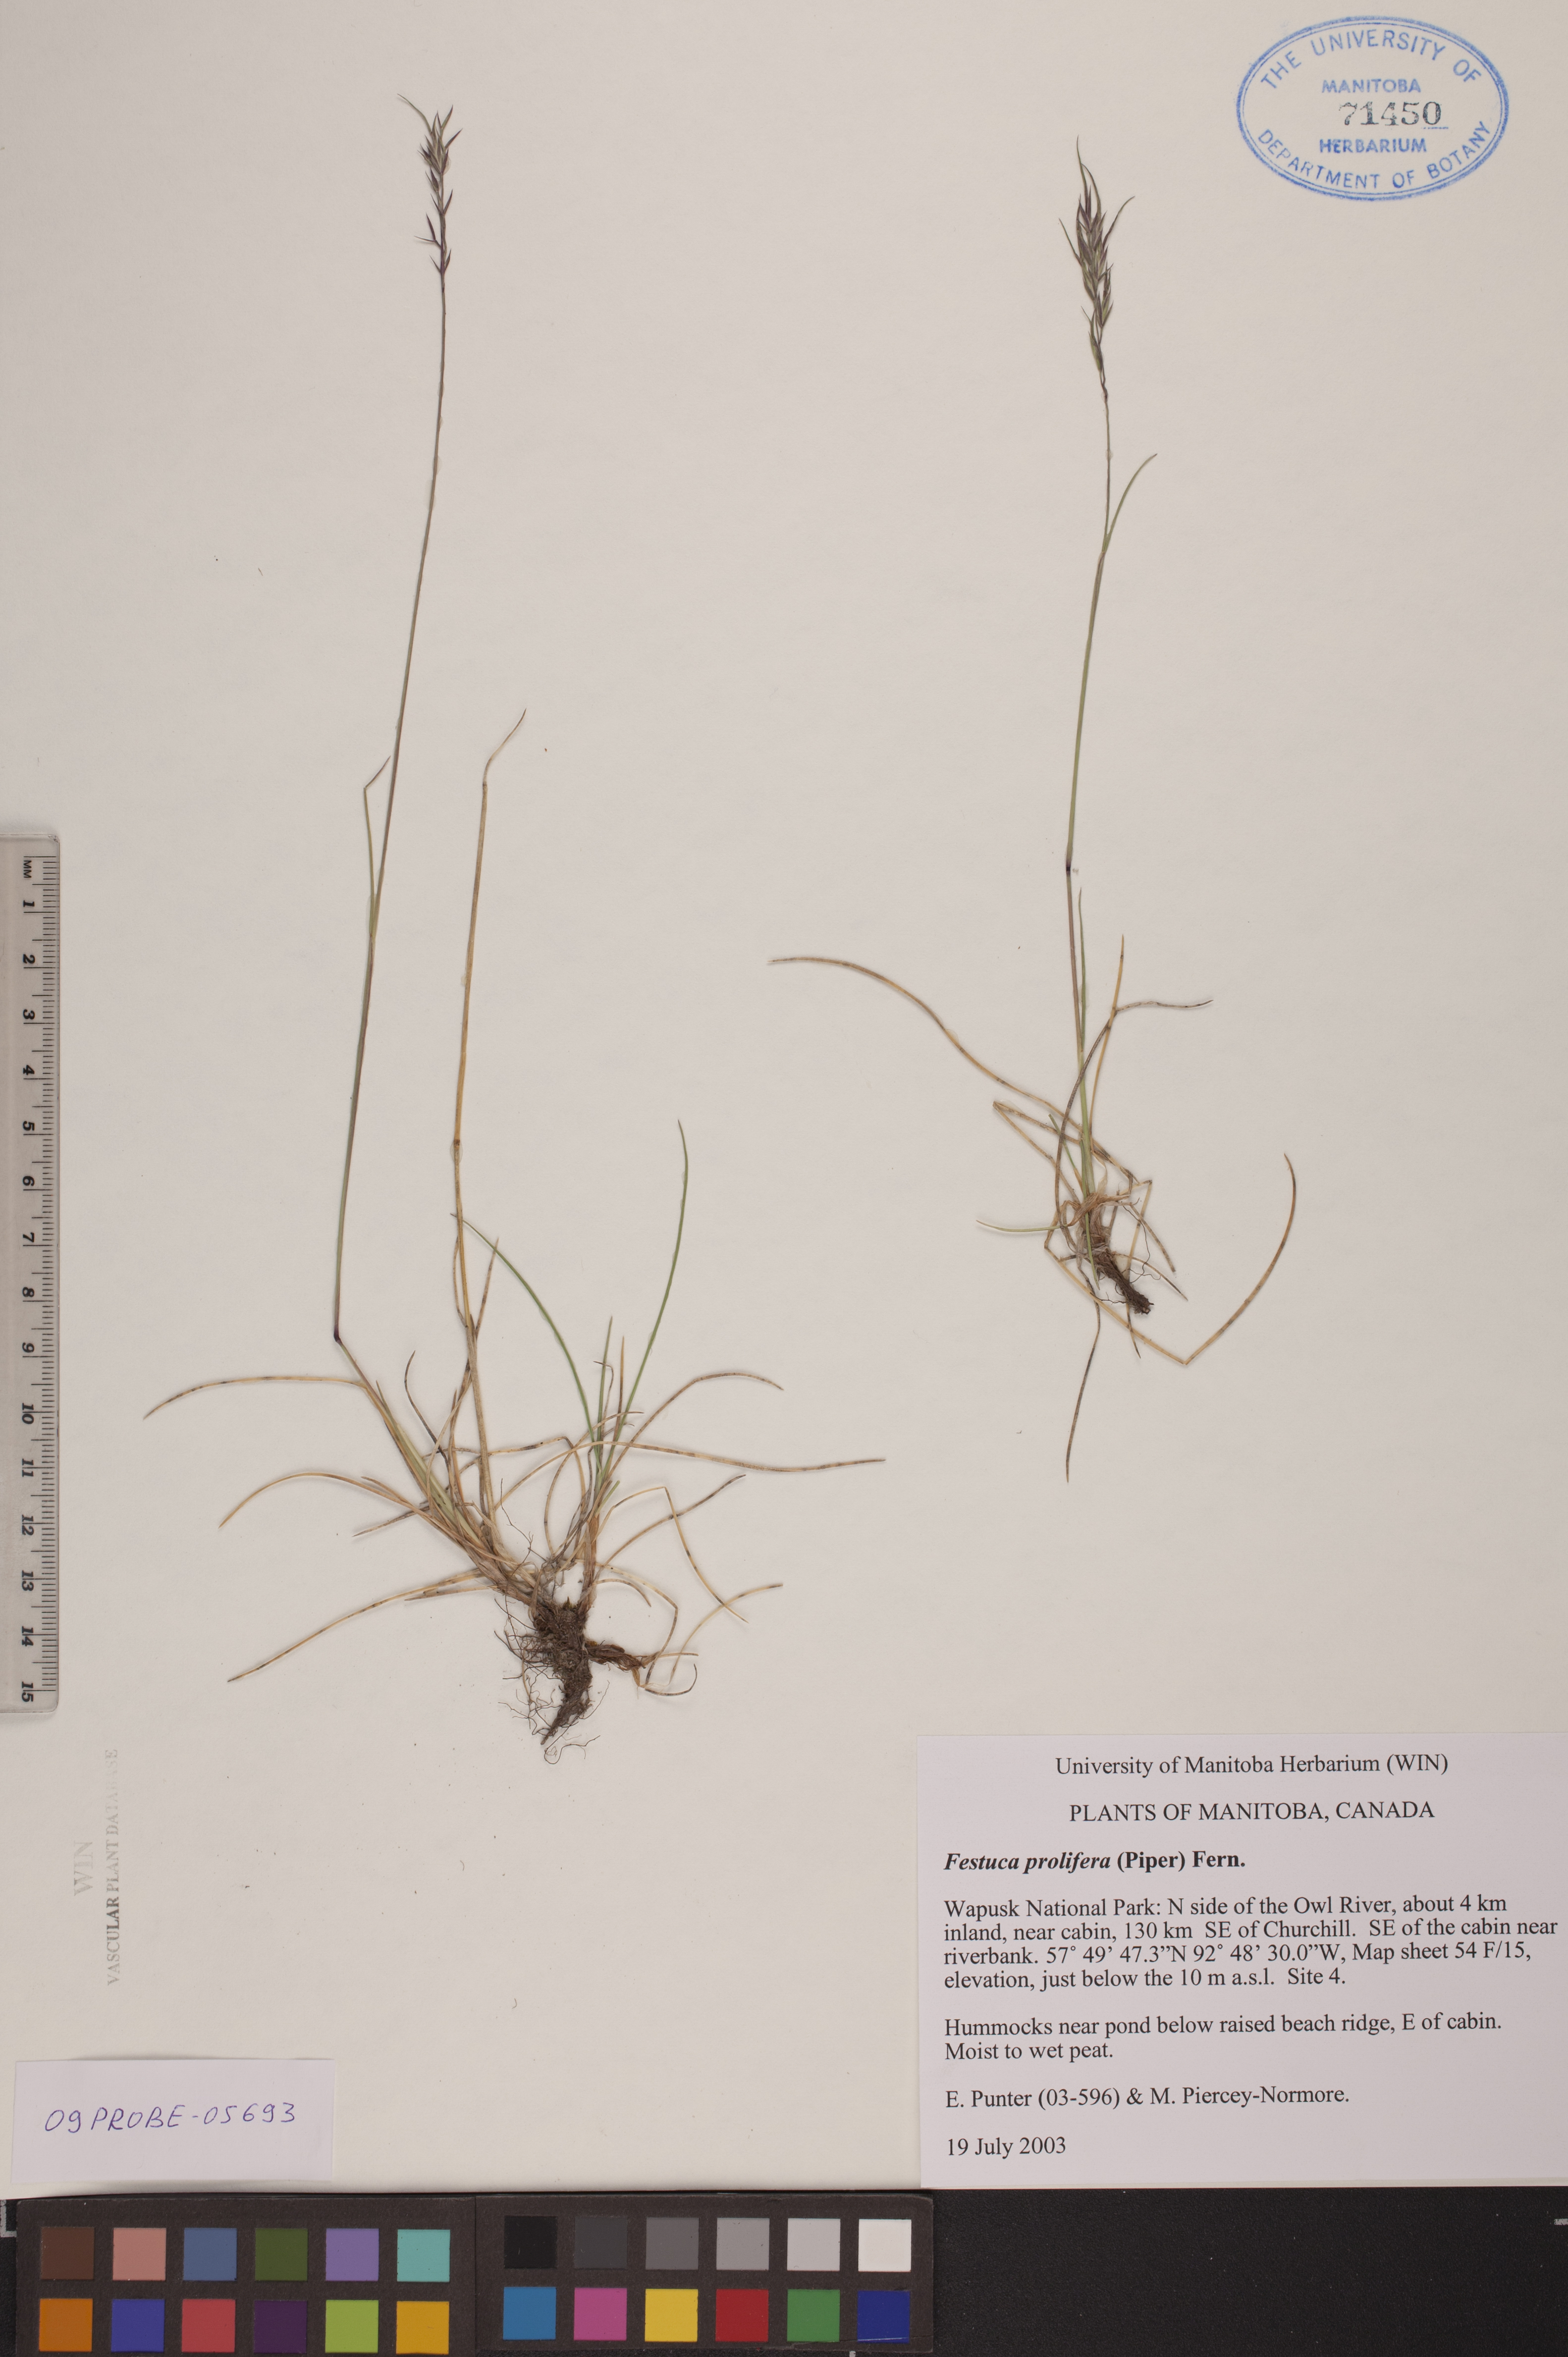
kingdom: Plantae
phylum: Tracheophyta
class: Liliopsida
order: Poales
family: Poaceae
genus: Festuca
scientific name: Festuca prolifera
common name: Proliferous fescue
